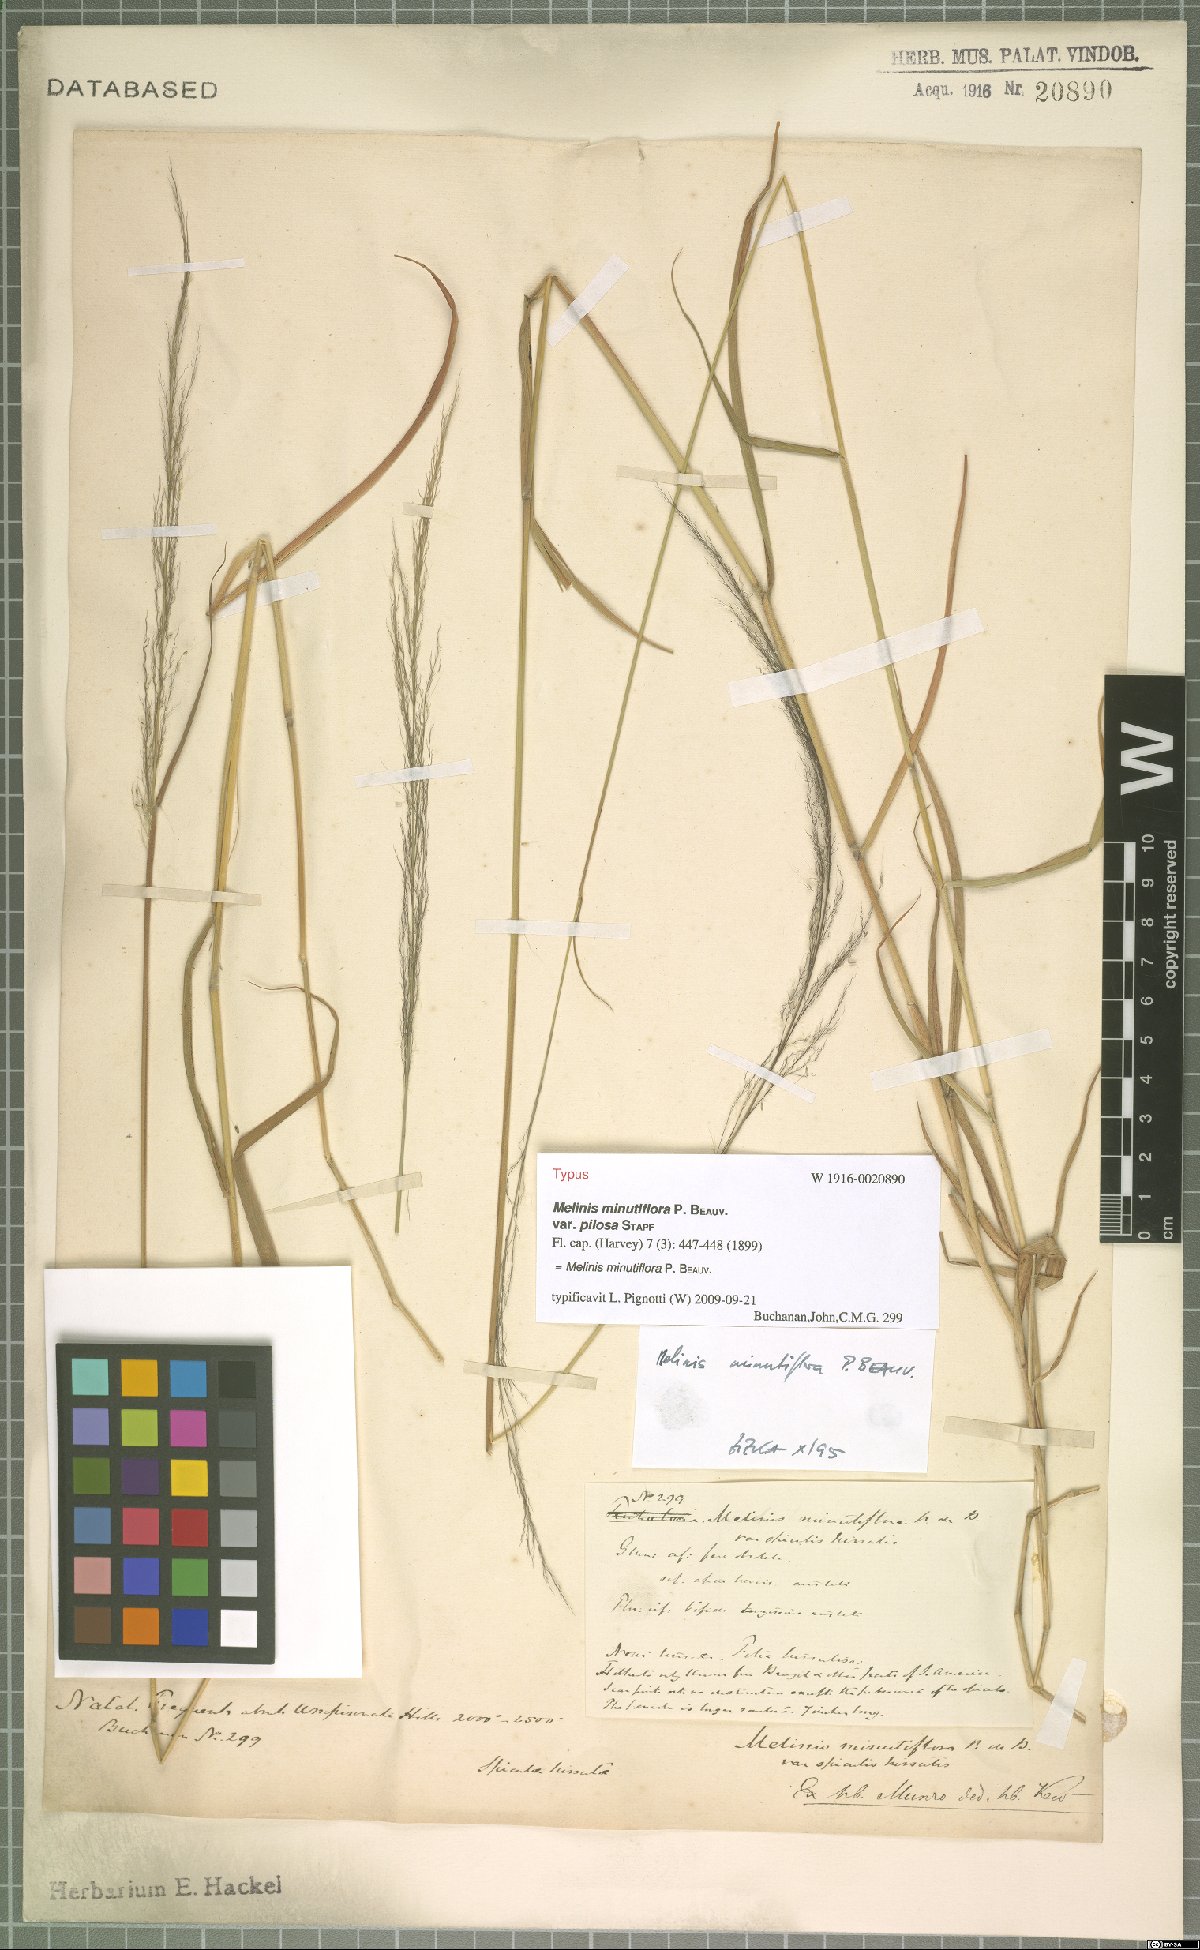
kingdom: Plantae
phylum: Tracheophyta
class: Liliopsida
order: Poales
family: Poaceae
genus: Melinis
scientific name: Melinis minutiflora
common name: Molassesgrass
